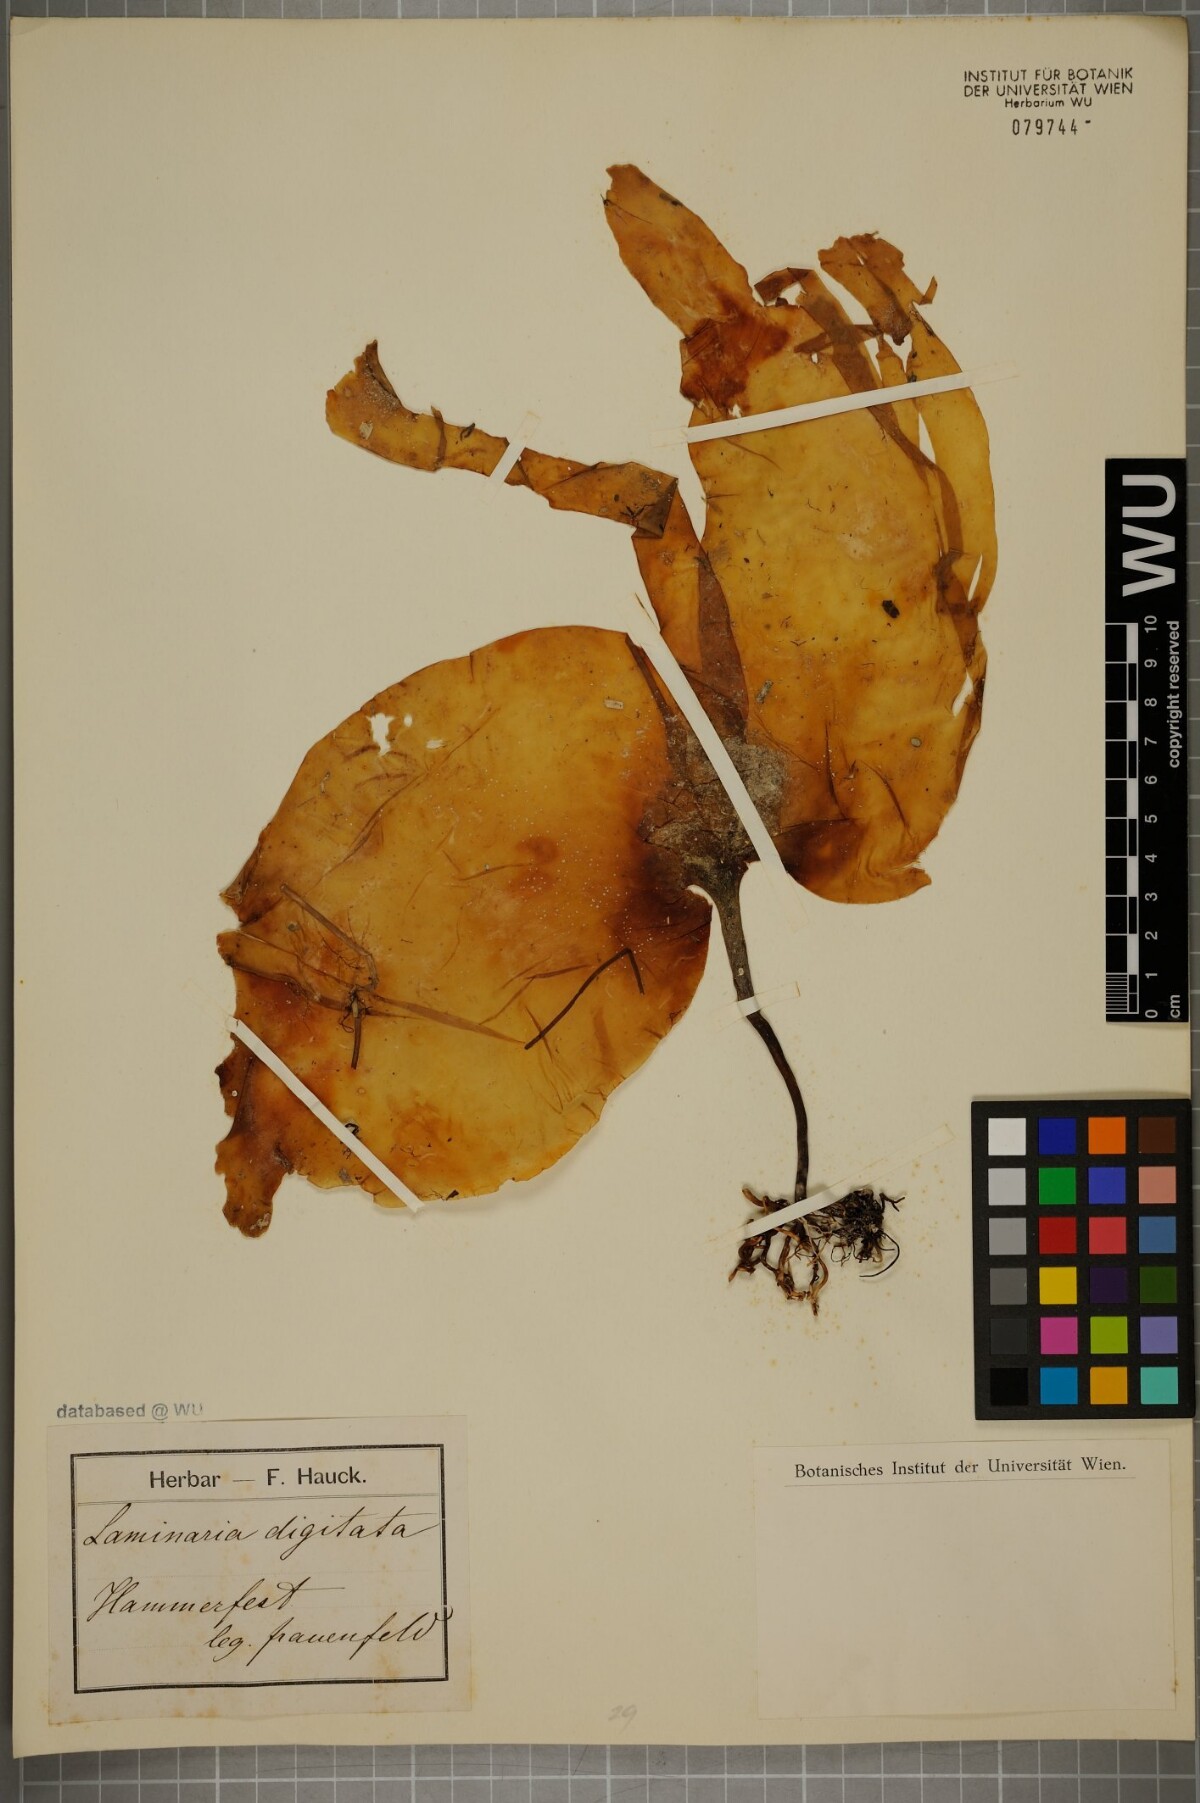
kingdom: Chromista
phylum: Ochrophyta
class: Phaeophyceae
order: Laminariales
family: Laminariaceae
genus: Laminaria
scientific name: Laminaria digitata
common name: Oarweed
